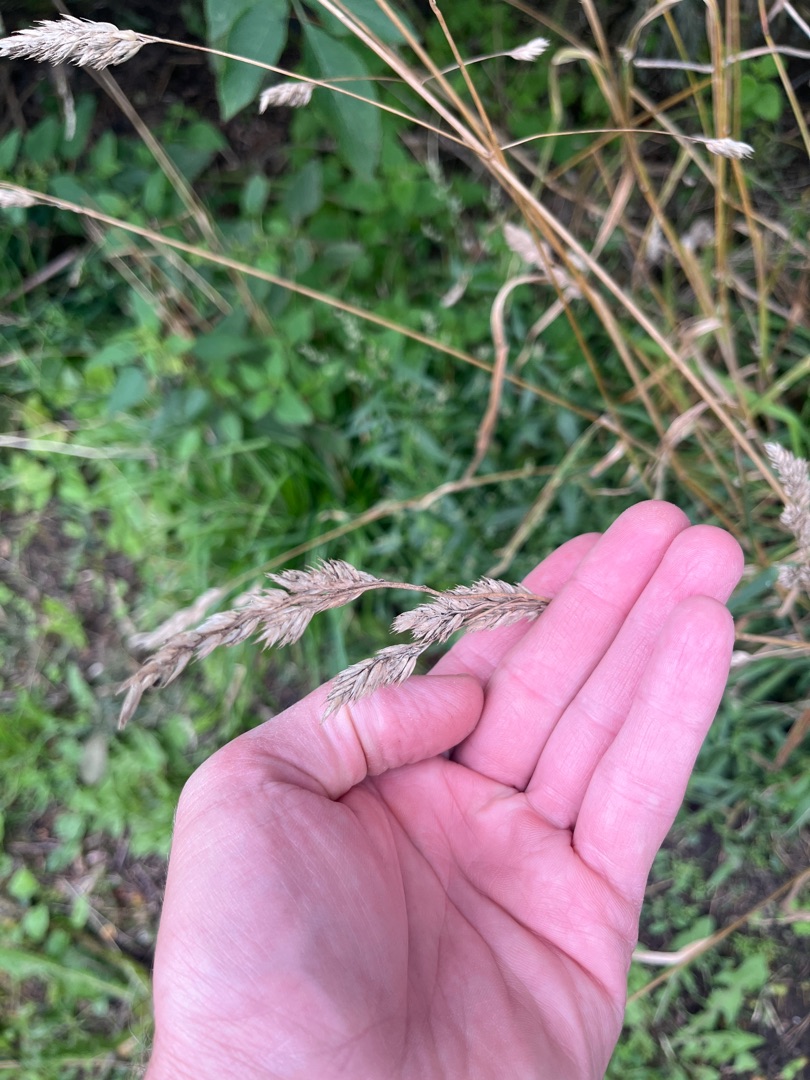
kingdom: Plantae
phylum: Tracheophyta
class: Liliopsida
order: Poales
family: Poaceae
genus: Dactylis
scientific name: Dactylis glomerata
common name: Almindelig hundegræs
